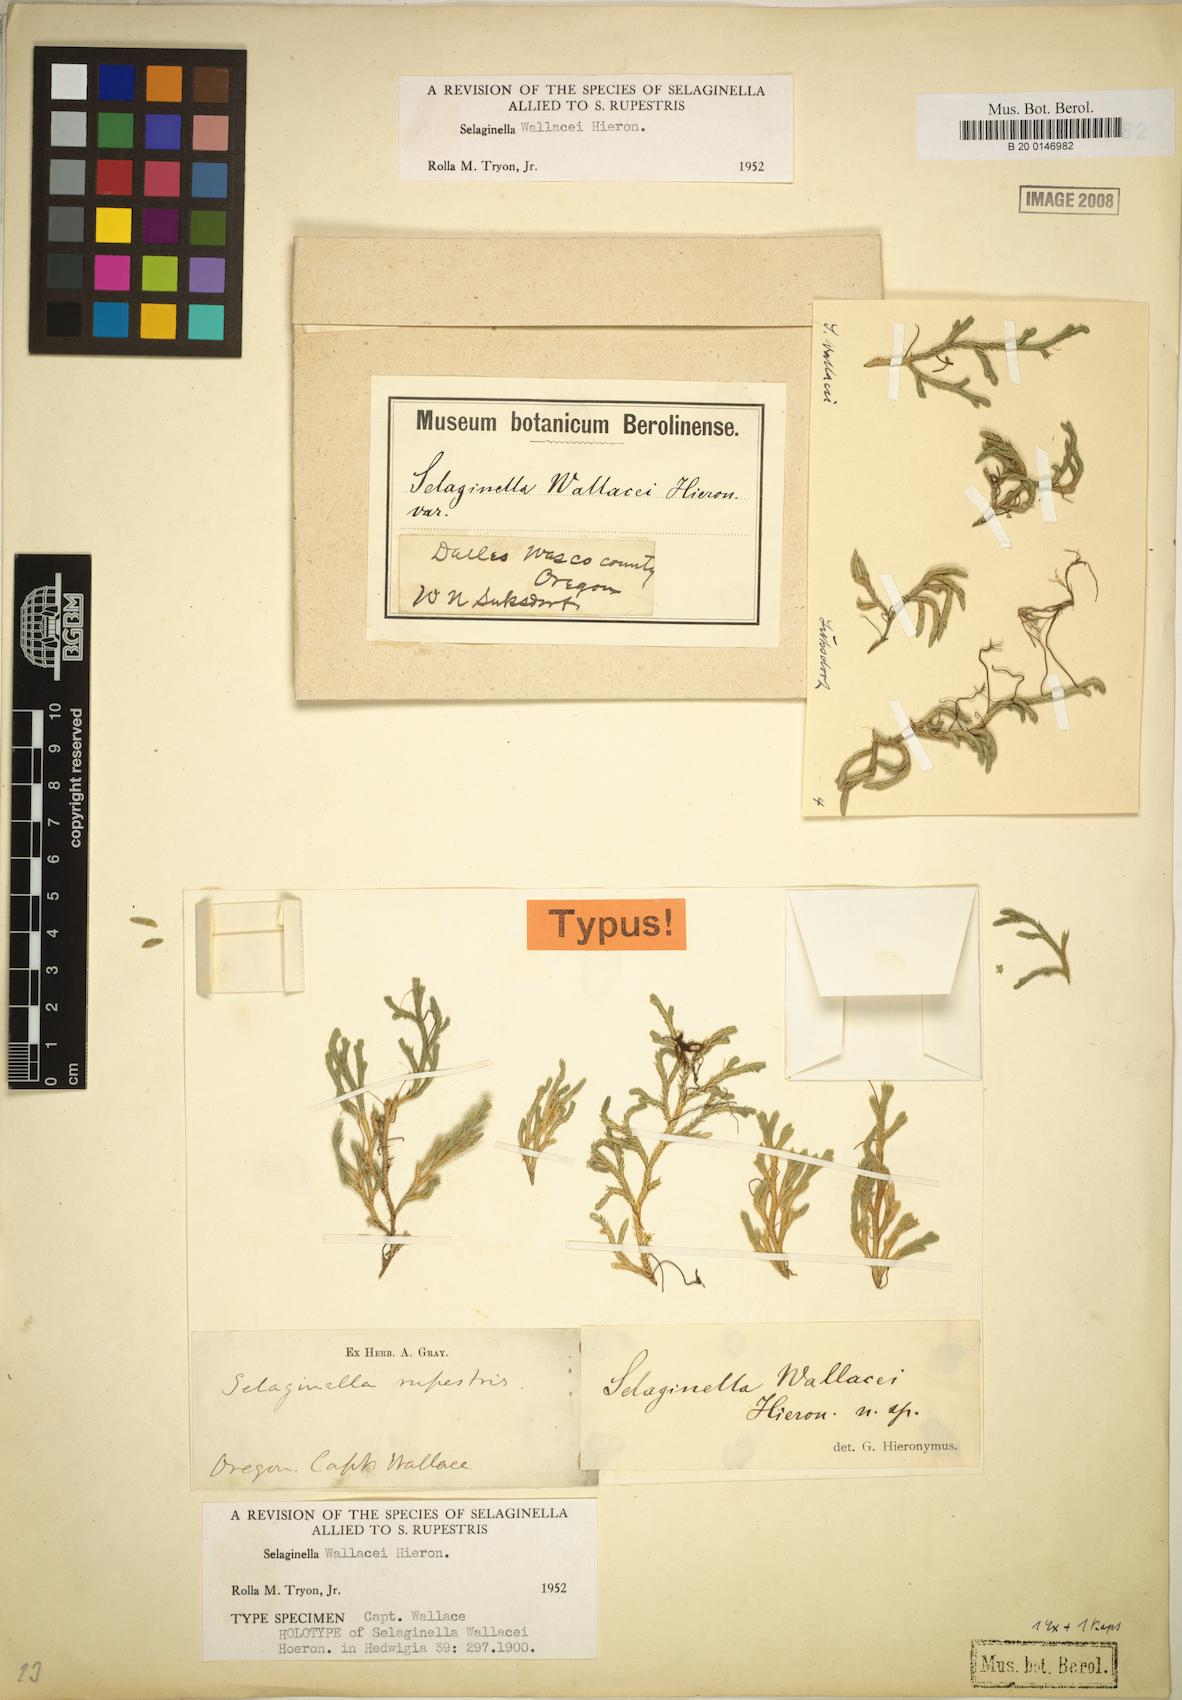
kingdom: Plantae
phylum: Tracheophyta
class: Lycopodiopsida
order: Selaginellales
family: Selaginellaceae
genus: Selaginella
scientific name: Selaginella wallacei
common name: Wallace's selaginella
